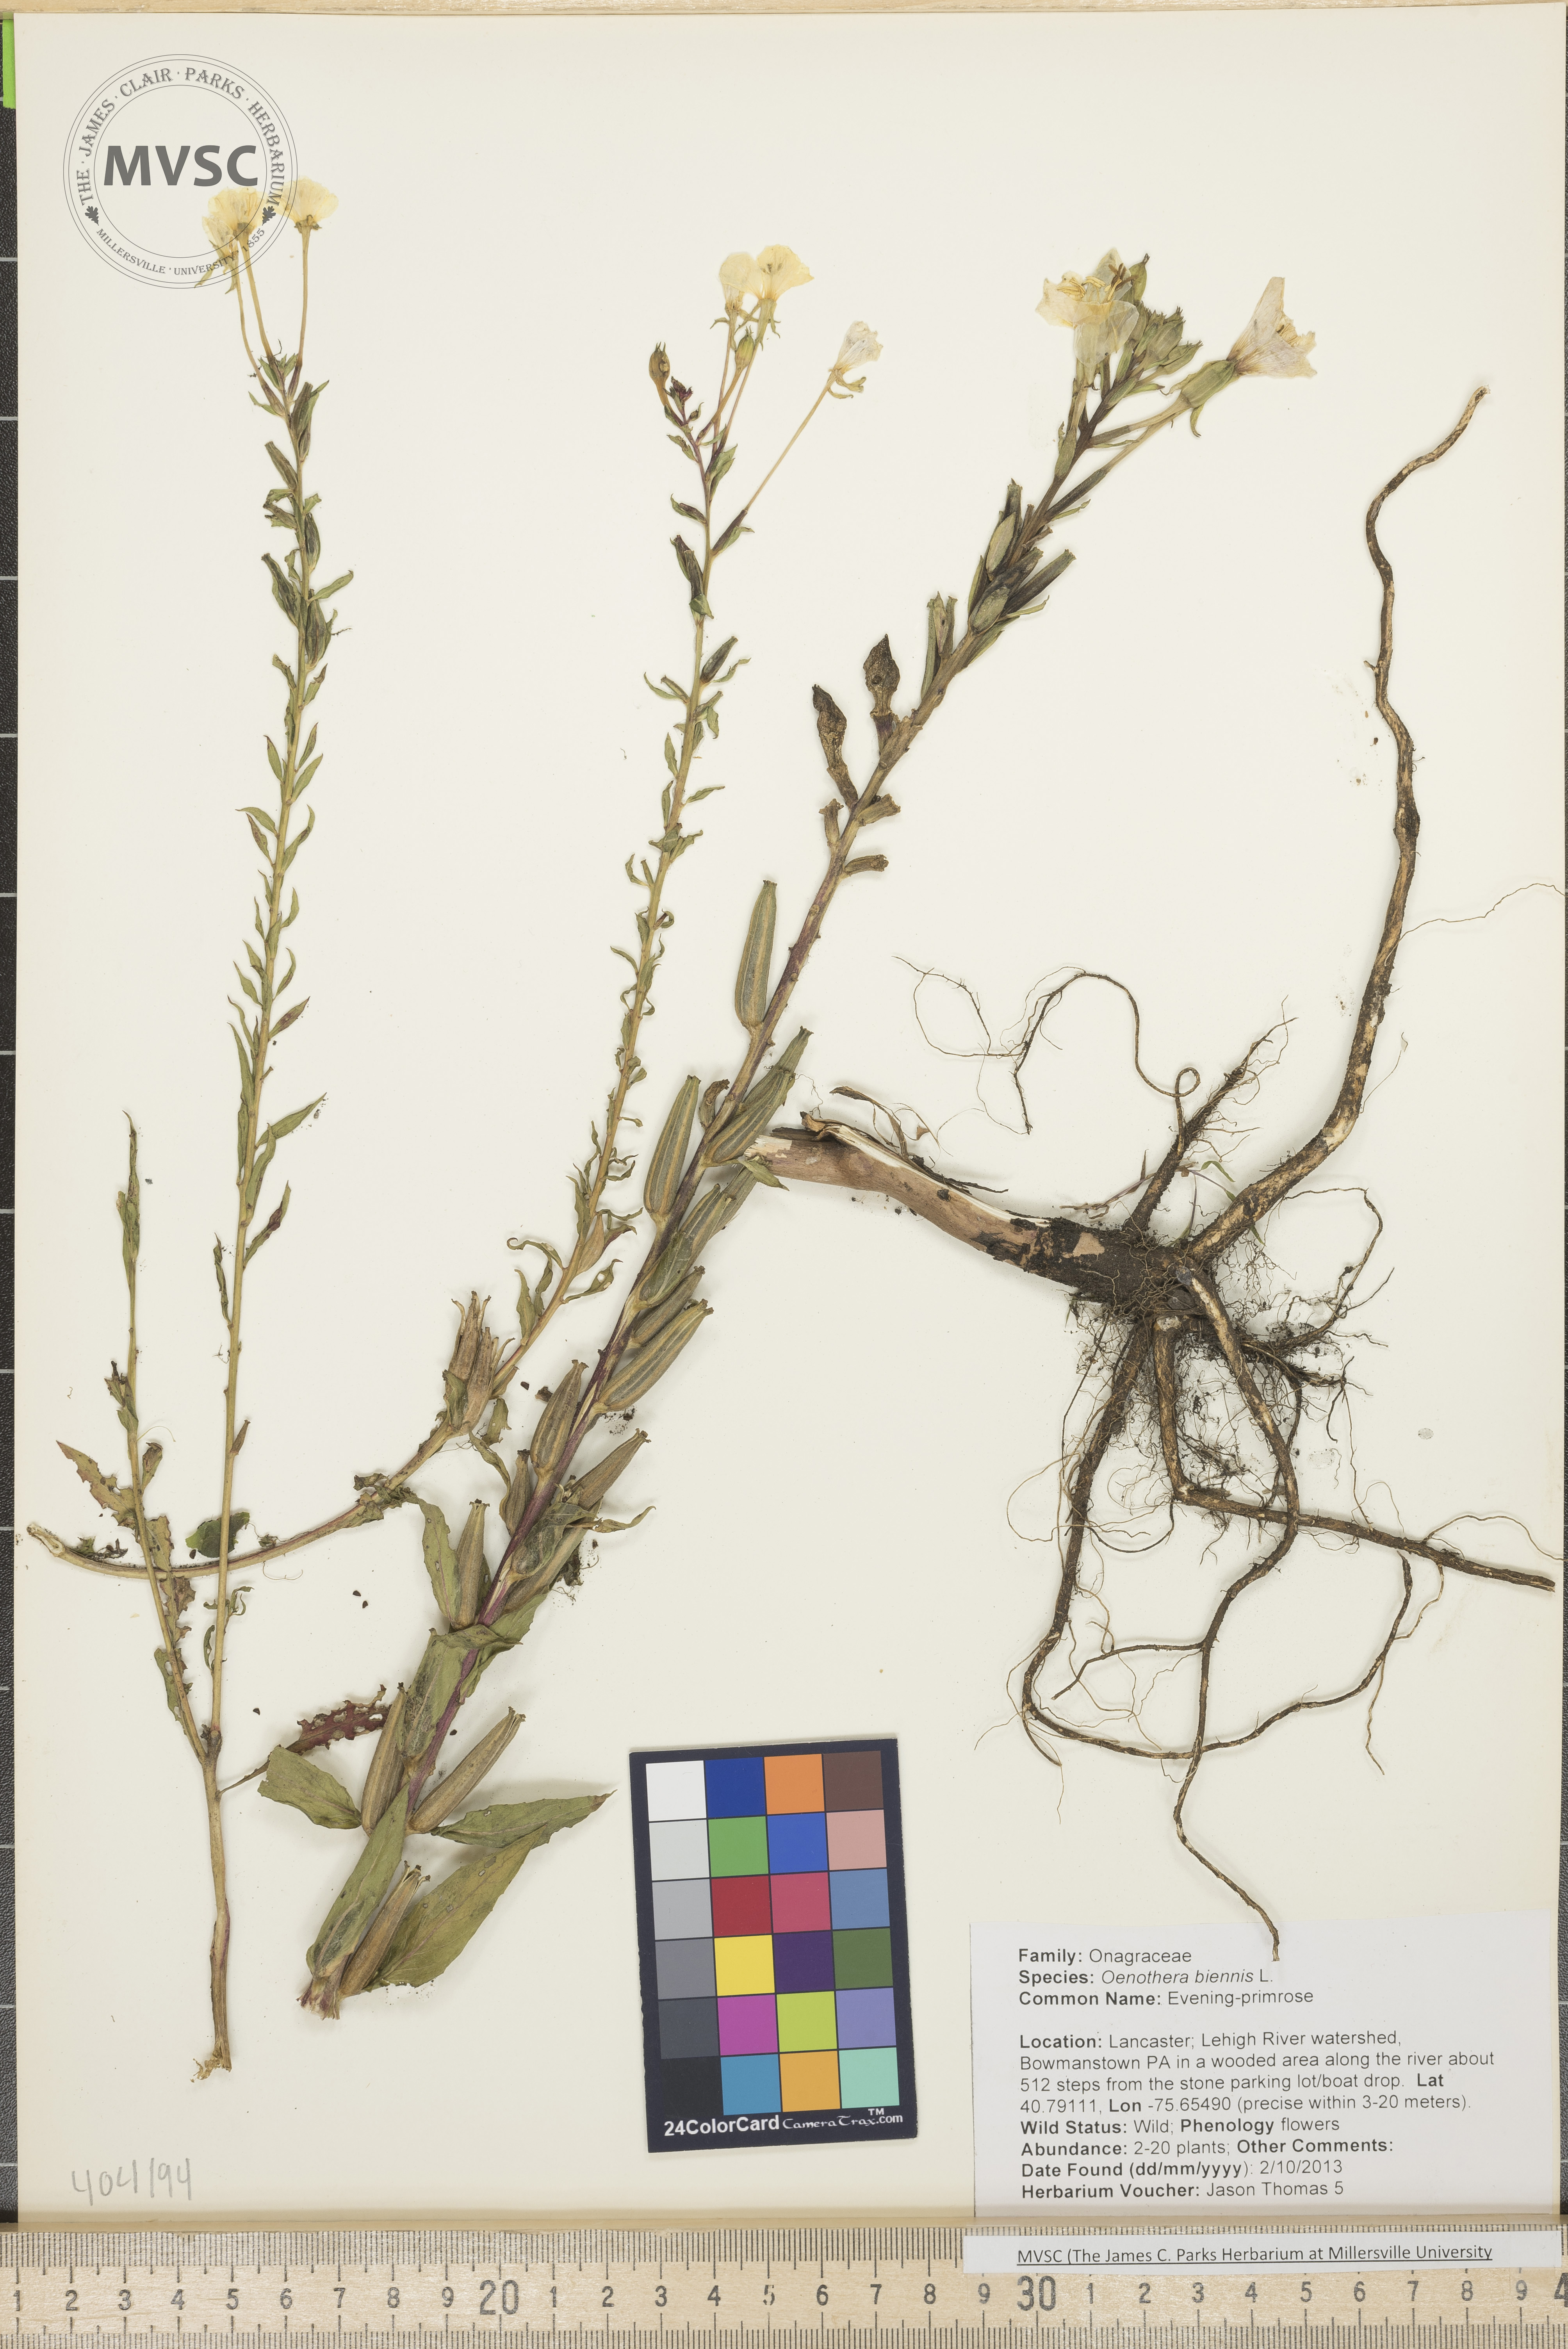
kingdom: Plantae
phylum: Tracheophyta
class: Magnoliopsida
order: Myrtales
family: Onagraceae
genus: Oenothera
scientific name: Oenothera biennis
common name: Evening primrose
